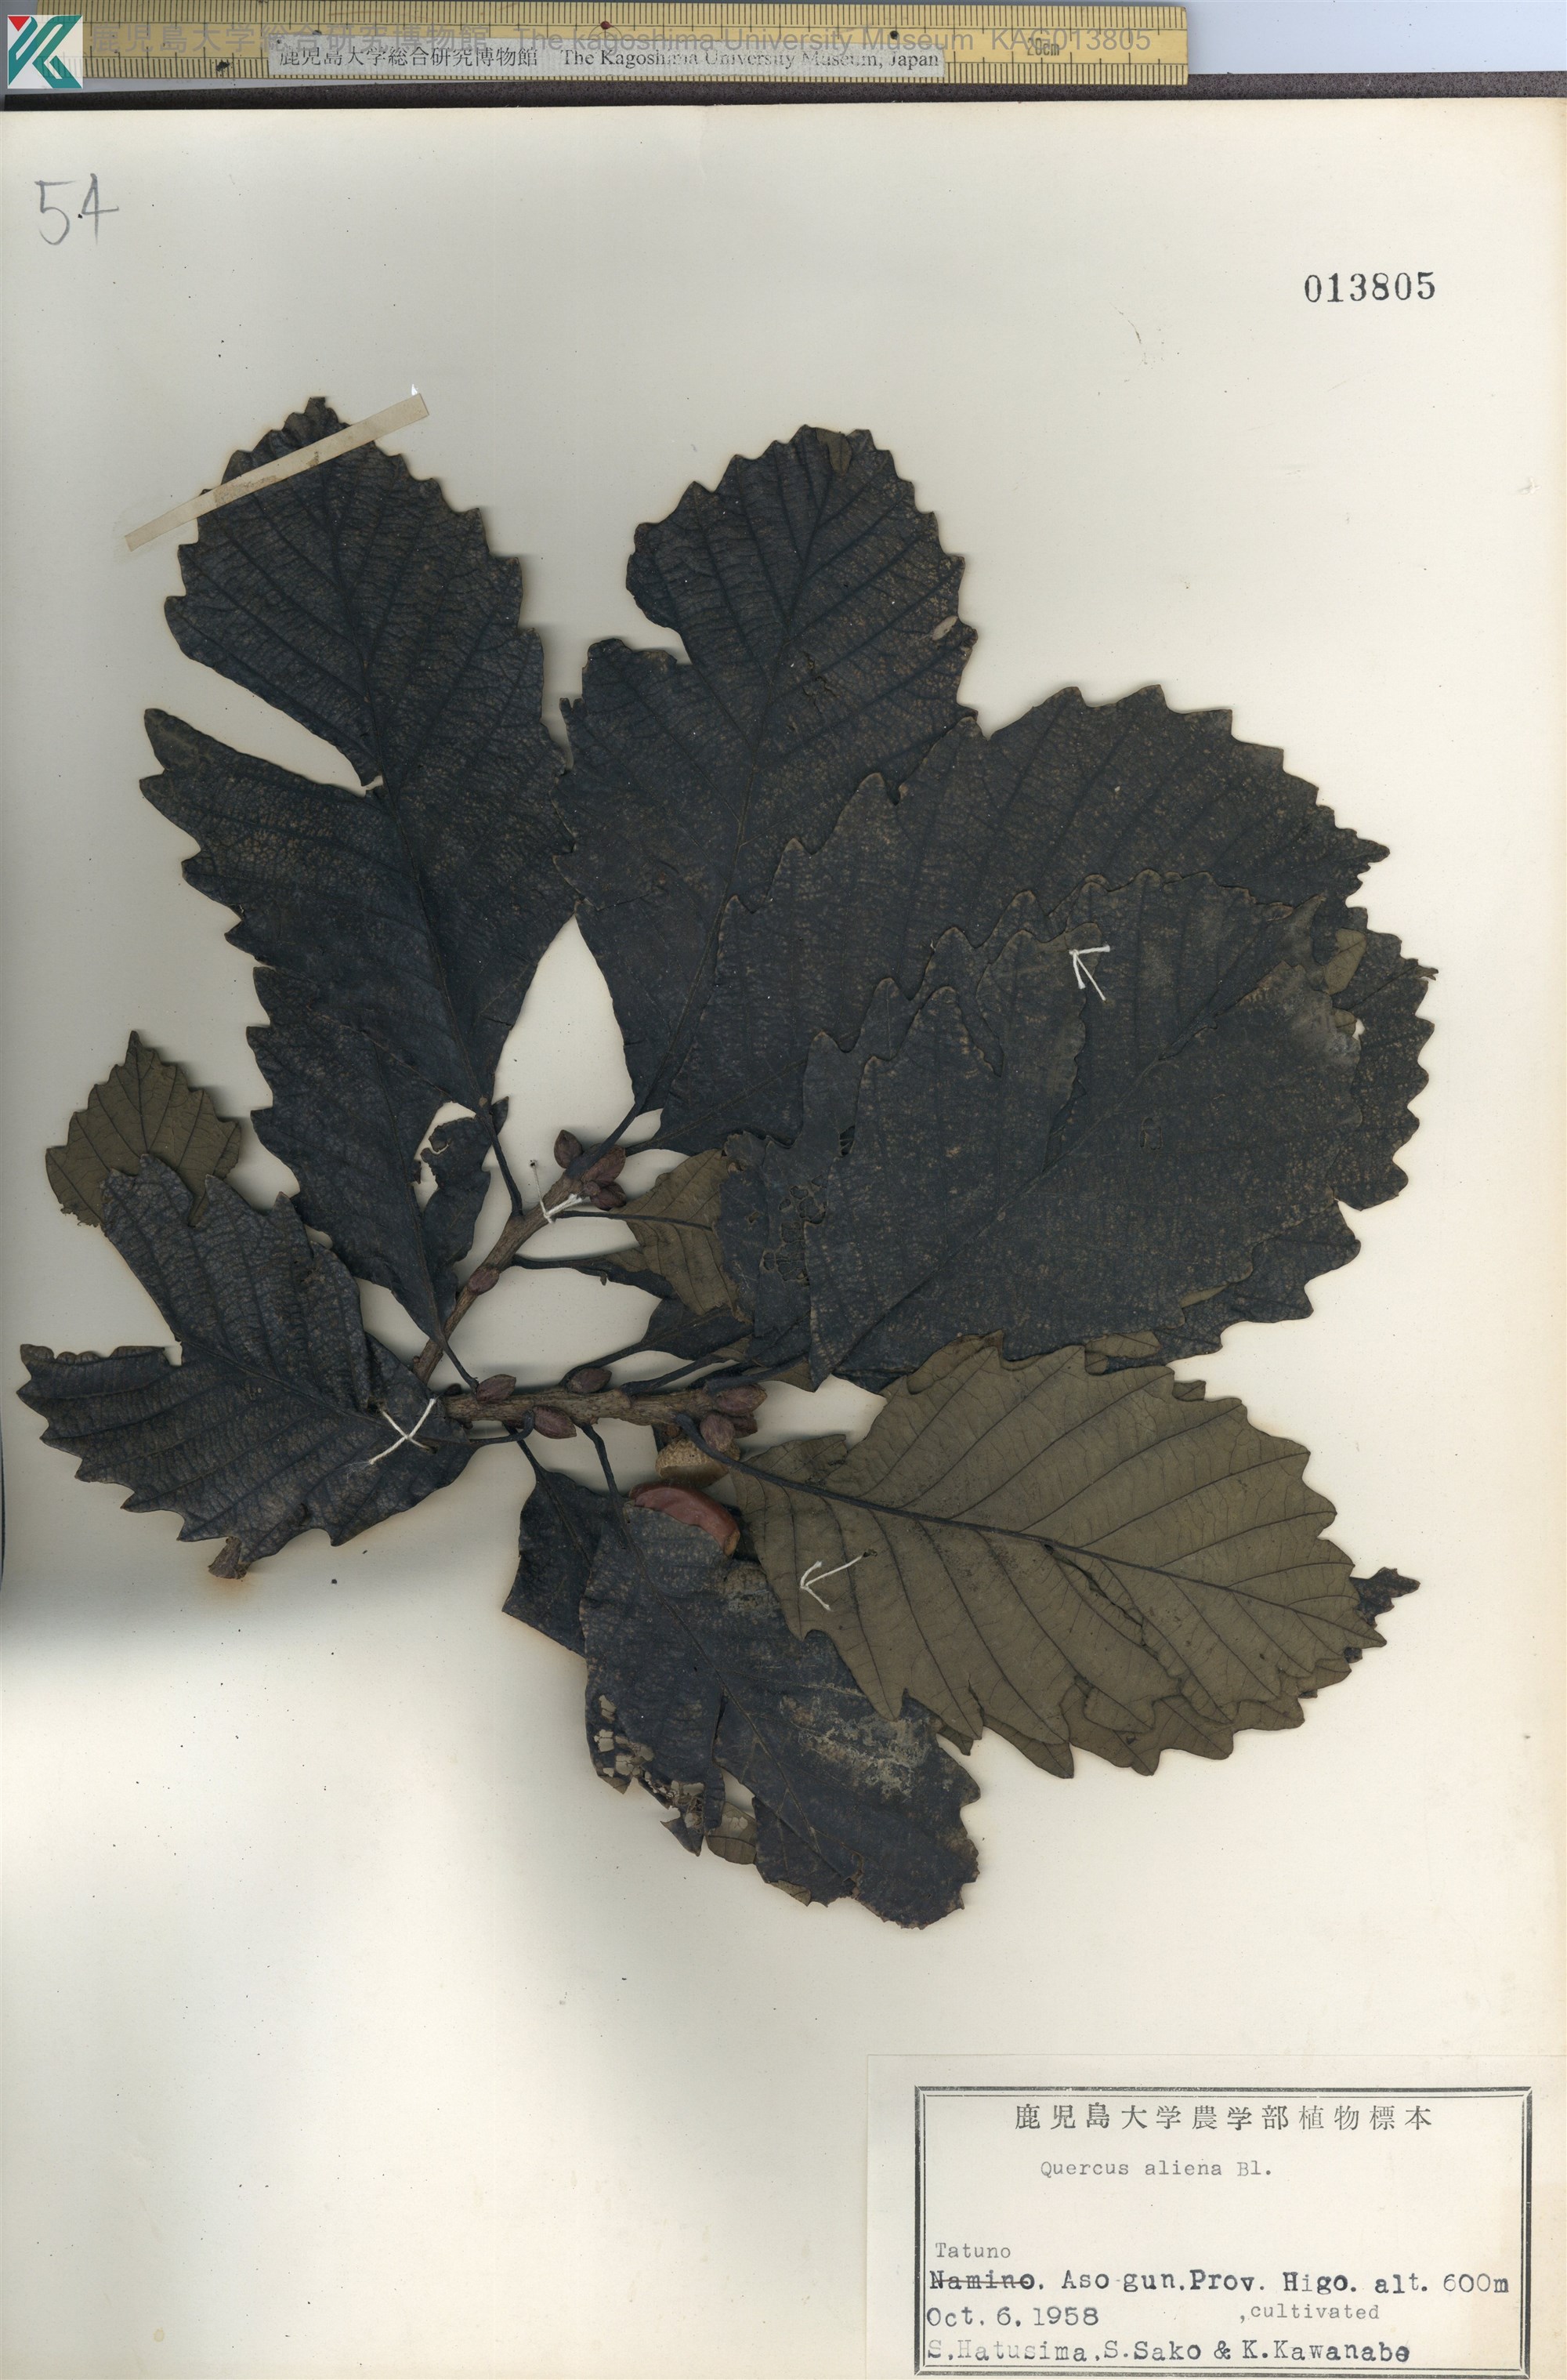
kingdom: Plantae
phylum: Tracheophyta
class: Magnoliopsida
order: Fagales
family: Fagaceae
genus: Quercus
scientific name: Quercus aliena
